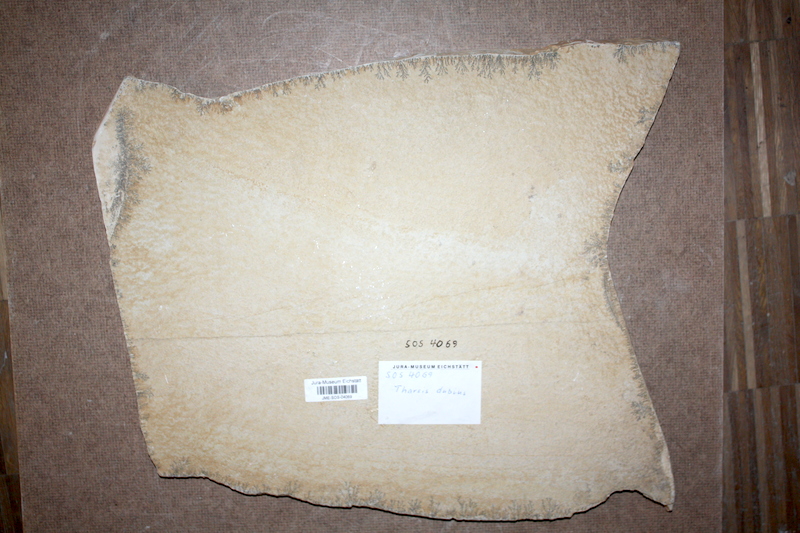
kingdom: Animalia
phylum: Chordata
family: Ascalaboidae
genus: Tharsis
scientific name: Tharsis dubius
